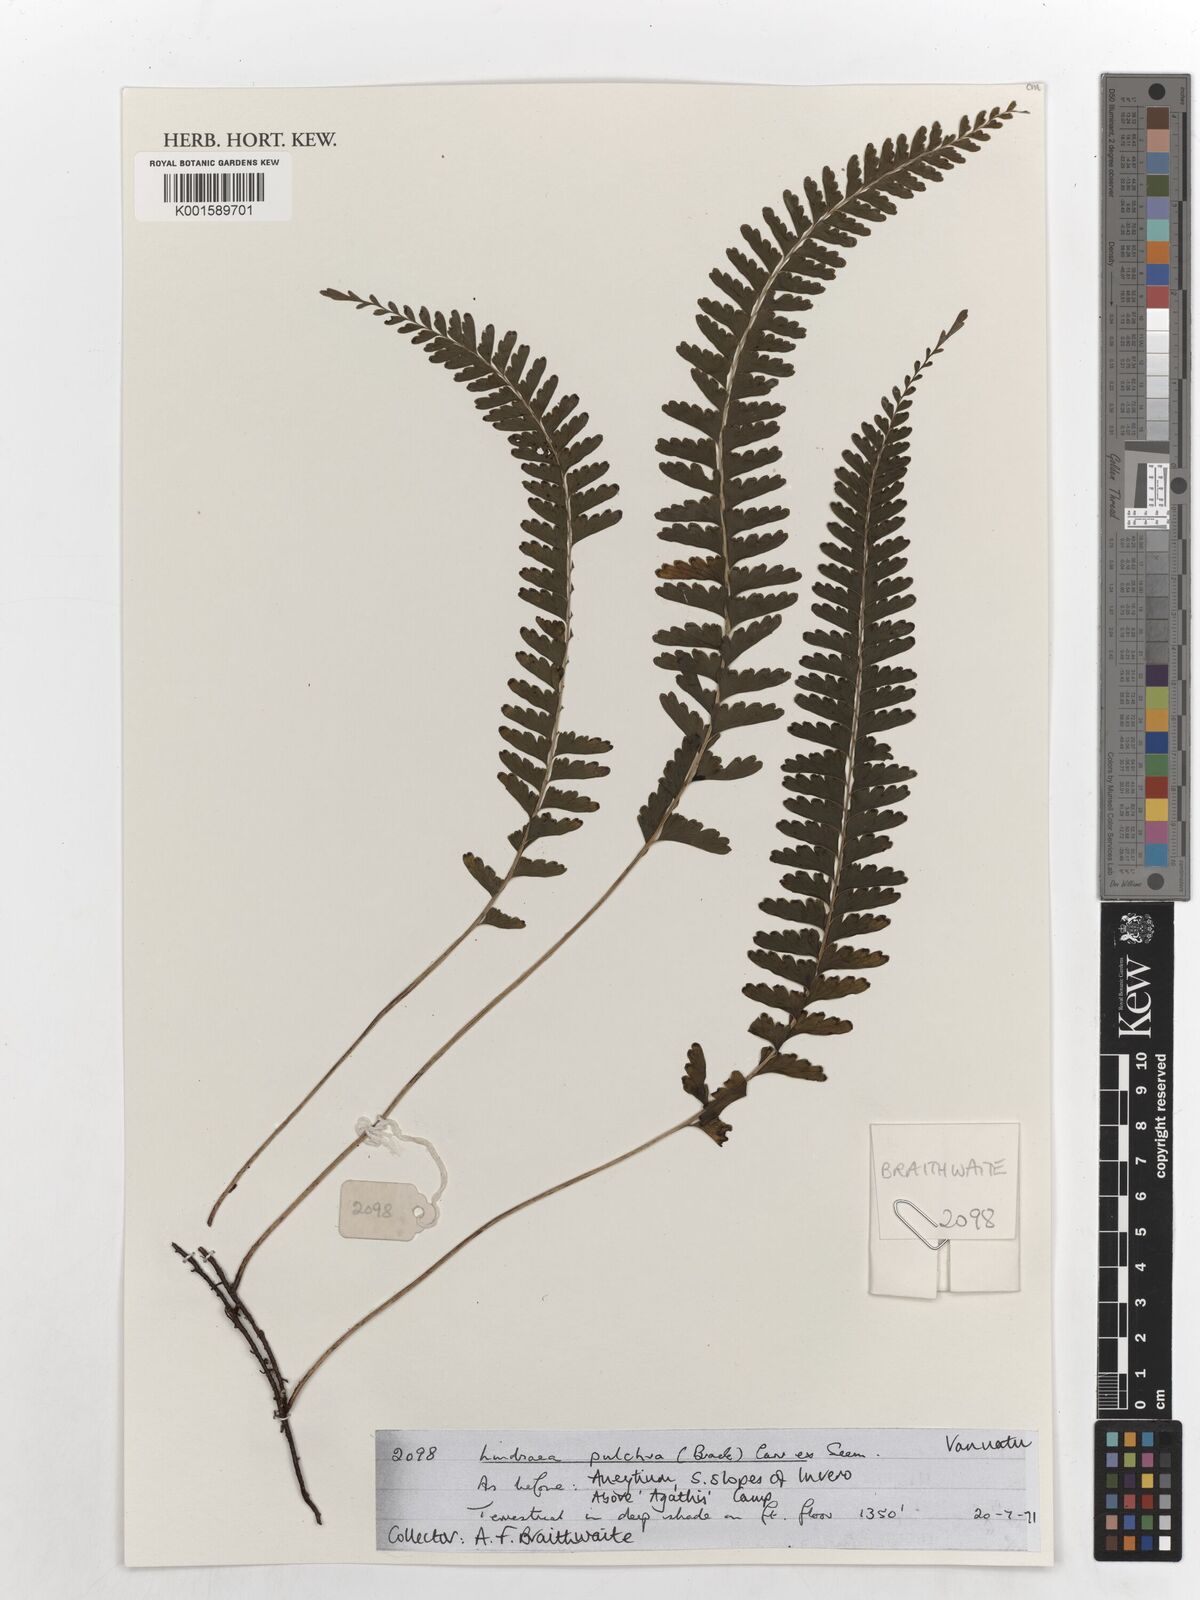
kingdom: Plantae
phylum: Tracheophyta
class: Polypodiopsida
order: Polypodiales
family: Lindsaeaceae
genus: Lindsaea
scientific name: Lindsaea pulchra
